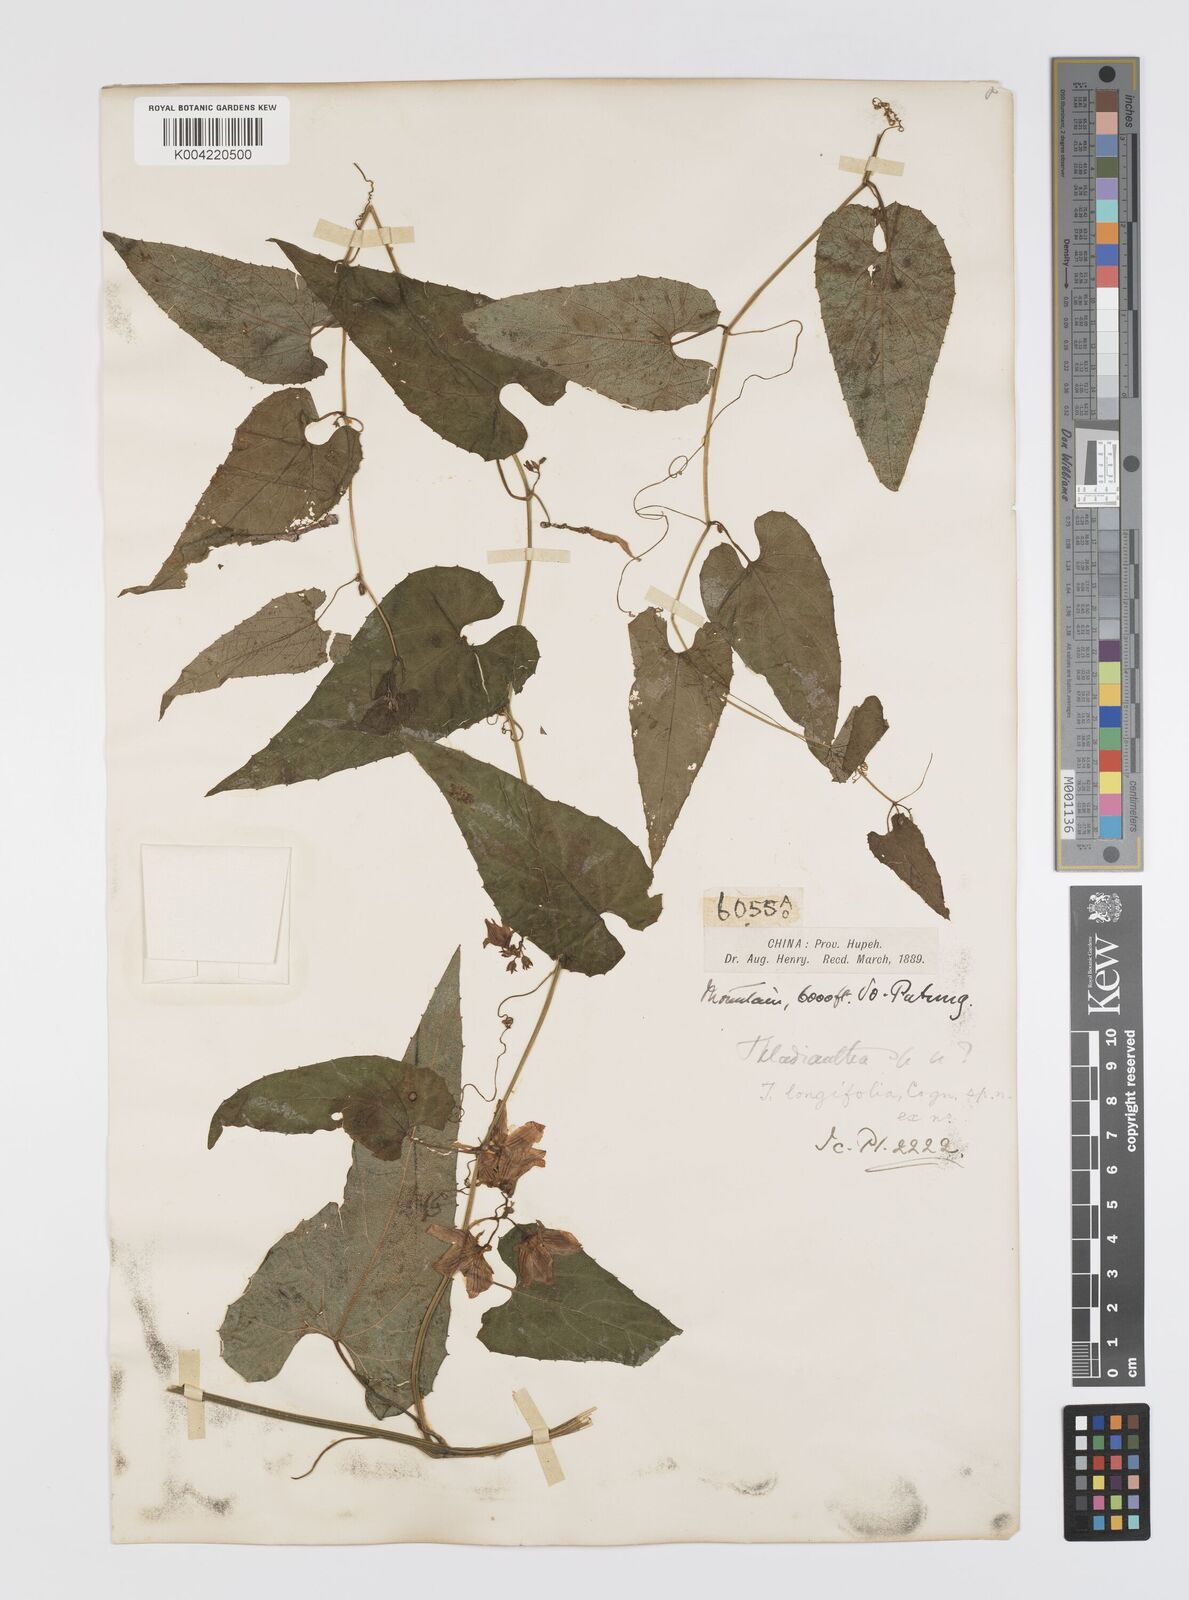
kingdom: Plantae
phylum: Tracheophyta
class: Magnoliopsida
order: Cucurbitales
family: Cucurbitaceae
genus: Thladiantha
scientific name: Thladiantha longifolia
